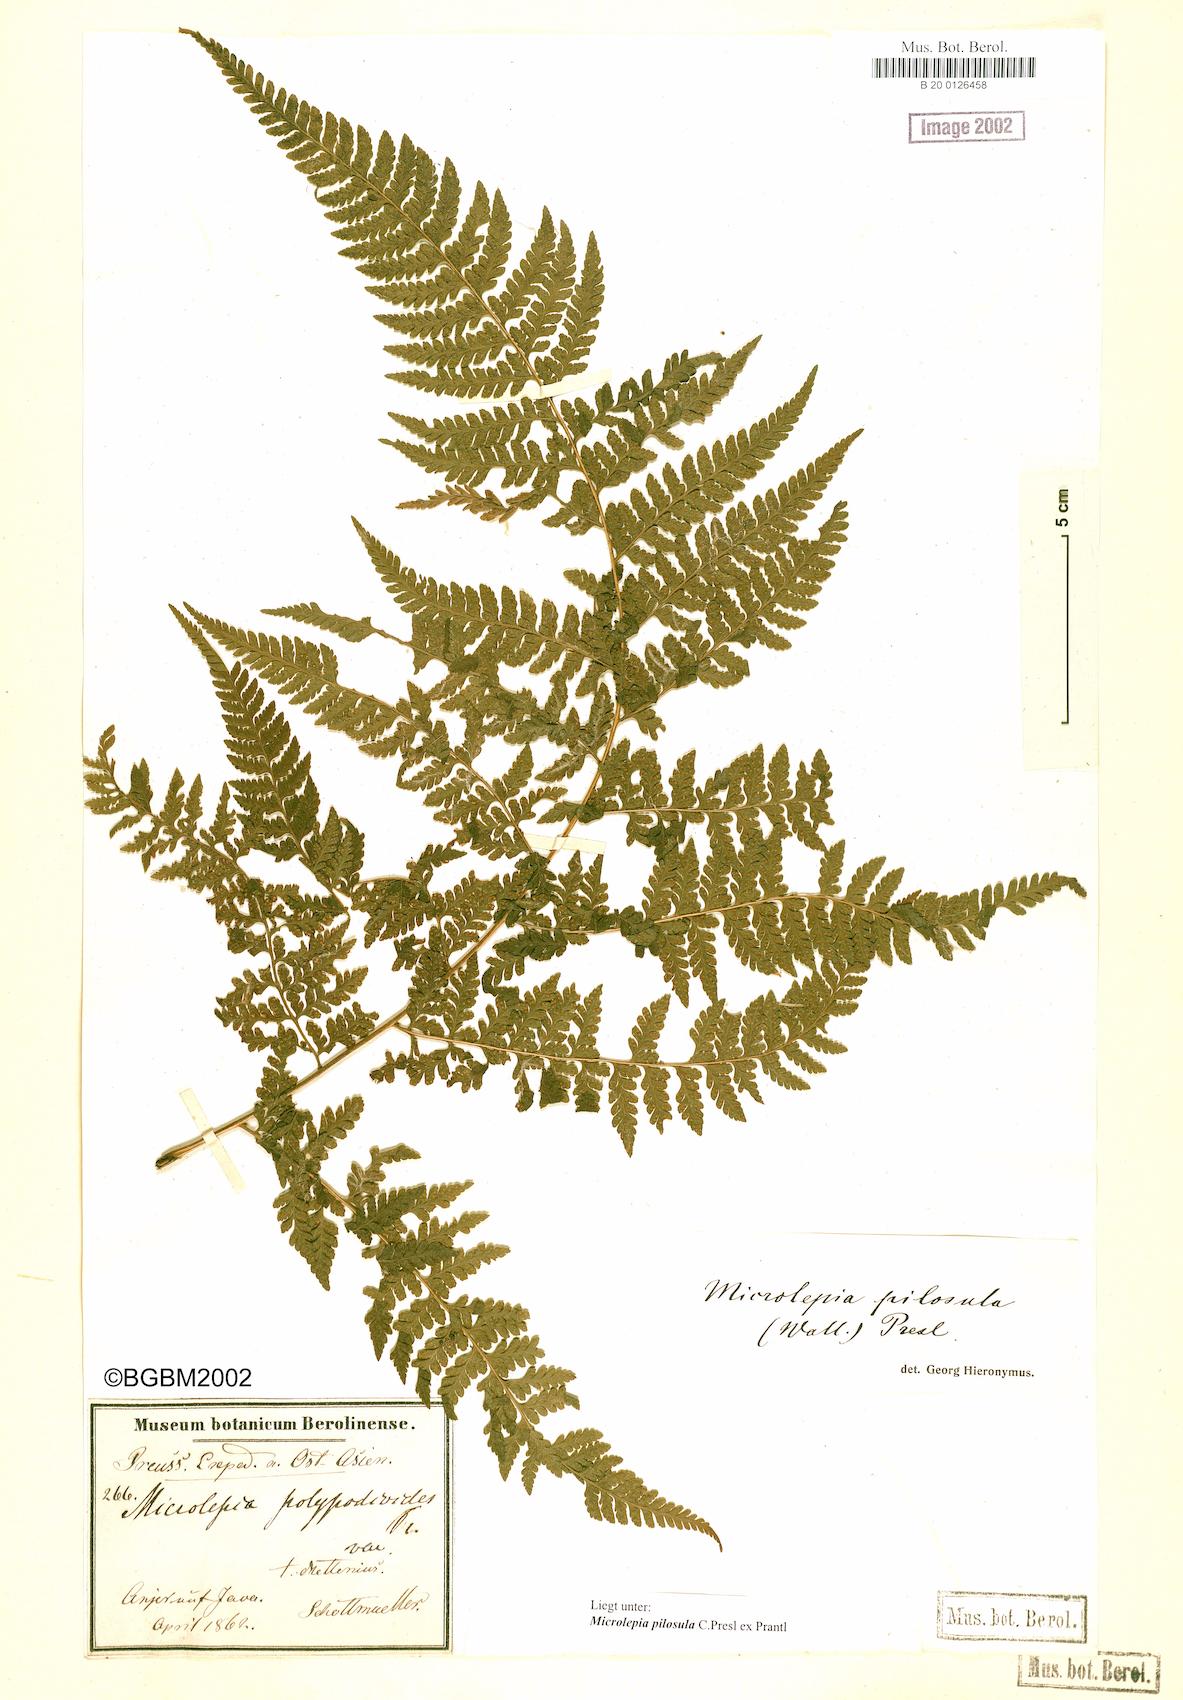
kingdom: Plantae
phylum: Tracheophyta
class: Polypodiopsida
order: Polypodiales
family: Dennstaedtiaceae
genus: Microlepia
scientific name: Microlepia speluncae
